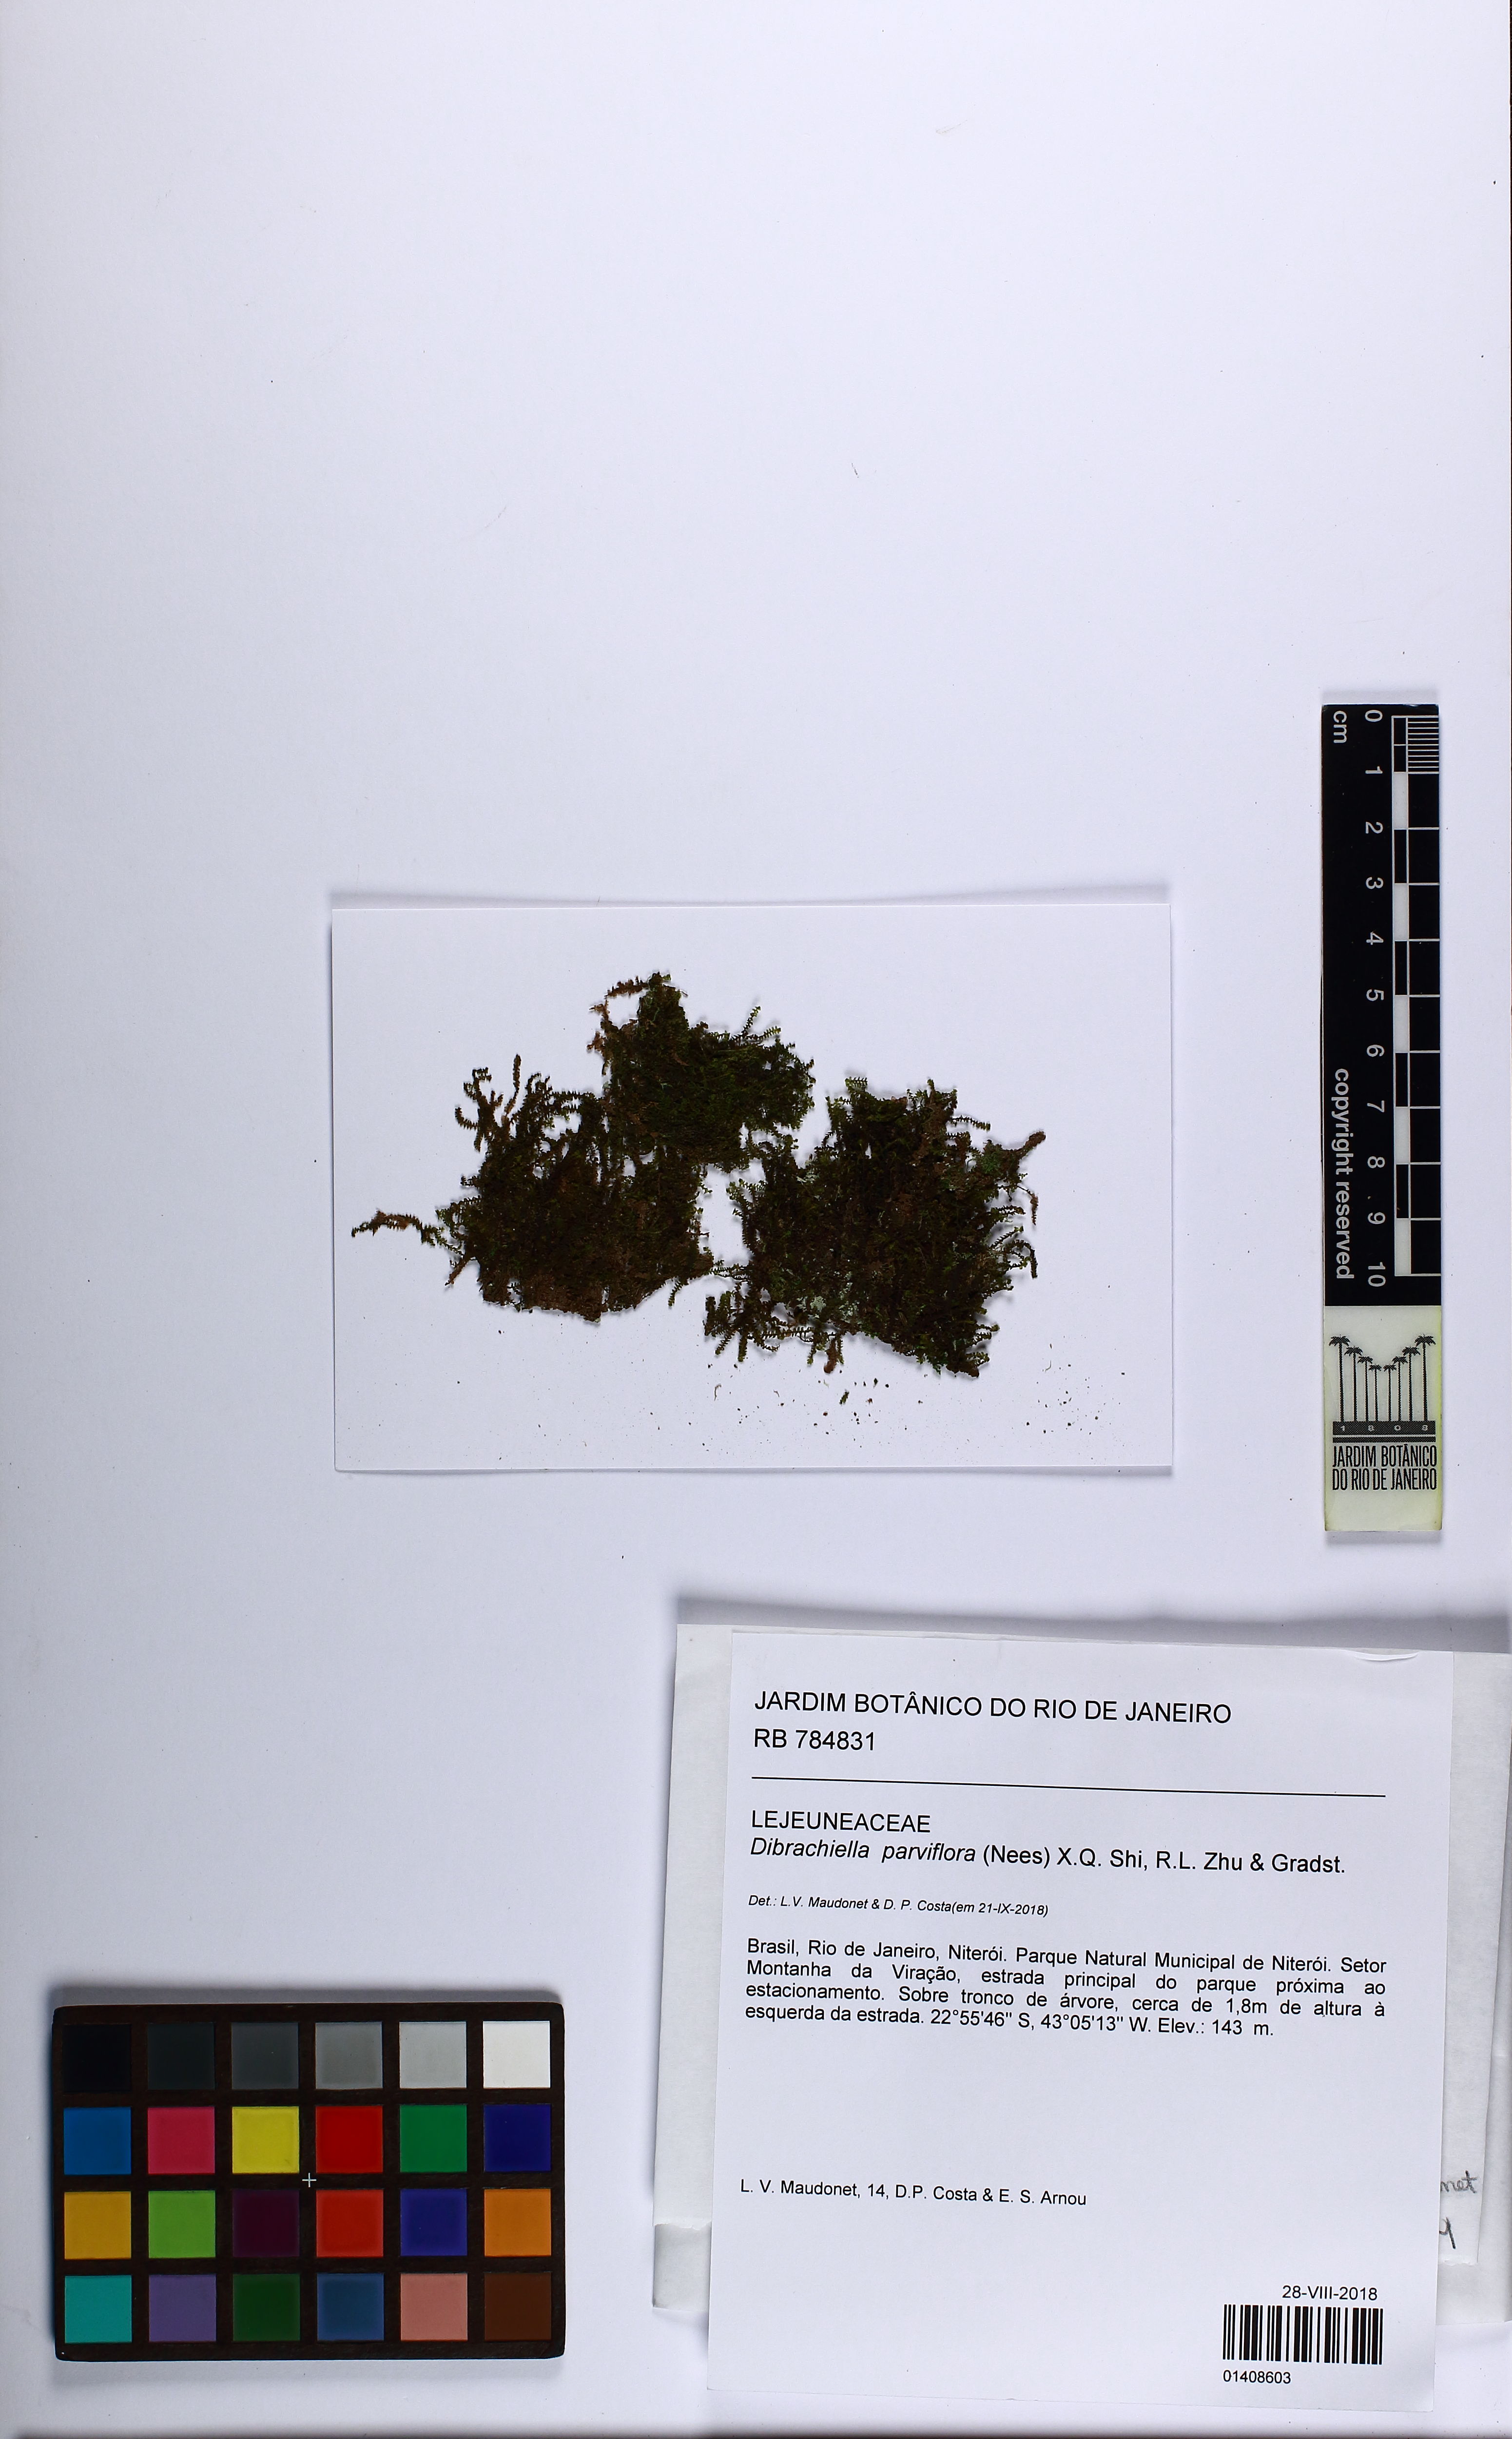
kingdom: Plantae
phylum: Marchantiophyta
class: Jungermanniopsida
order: Porellales
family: Lejeuneaceae
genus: Dibrachiella
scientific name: Dibrachiella parviflora
